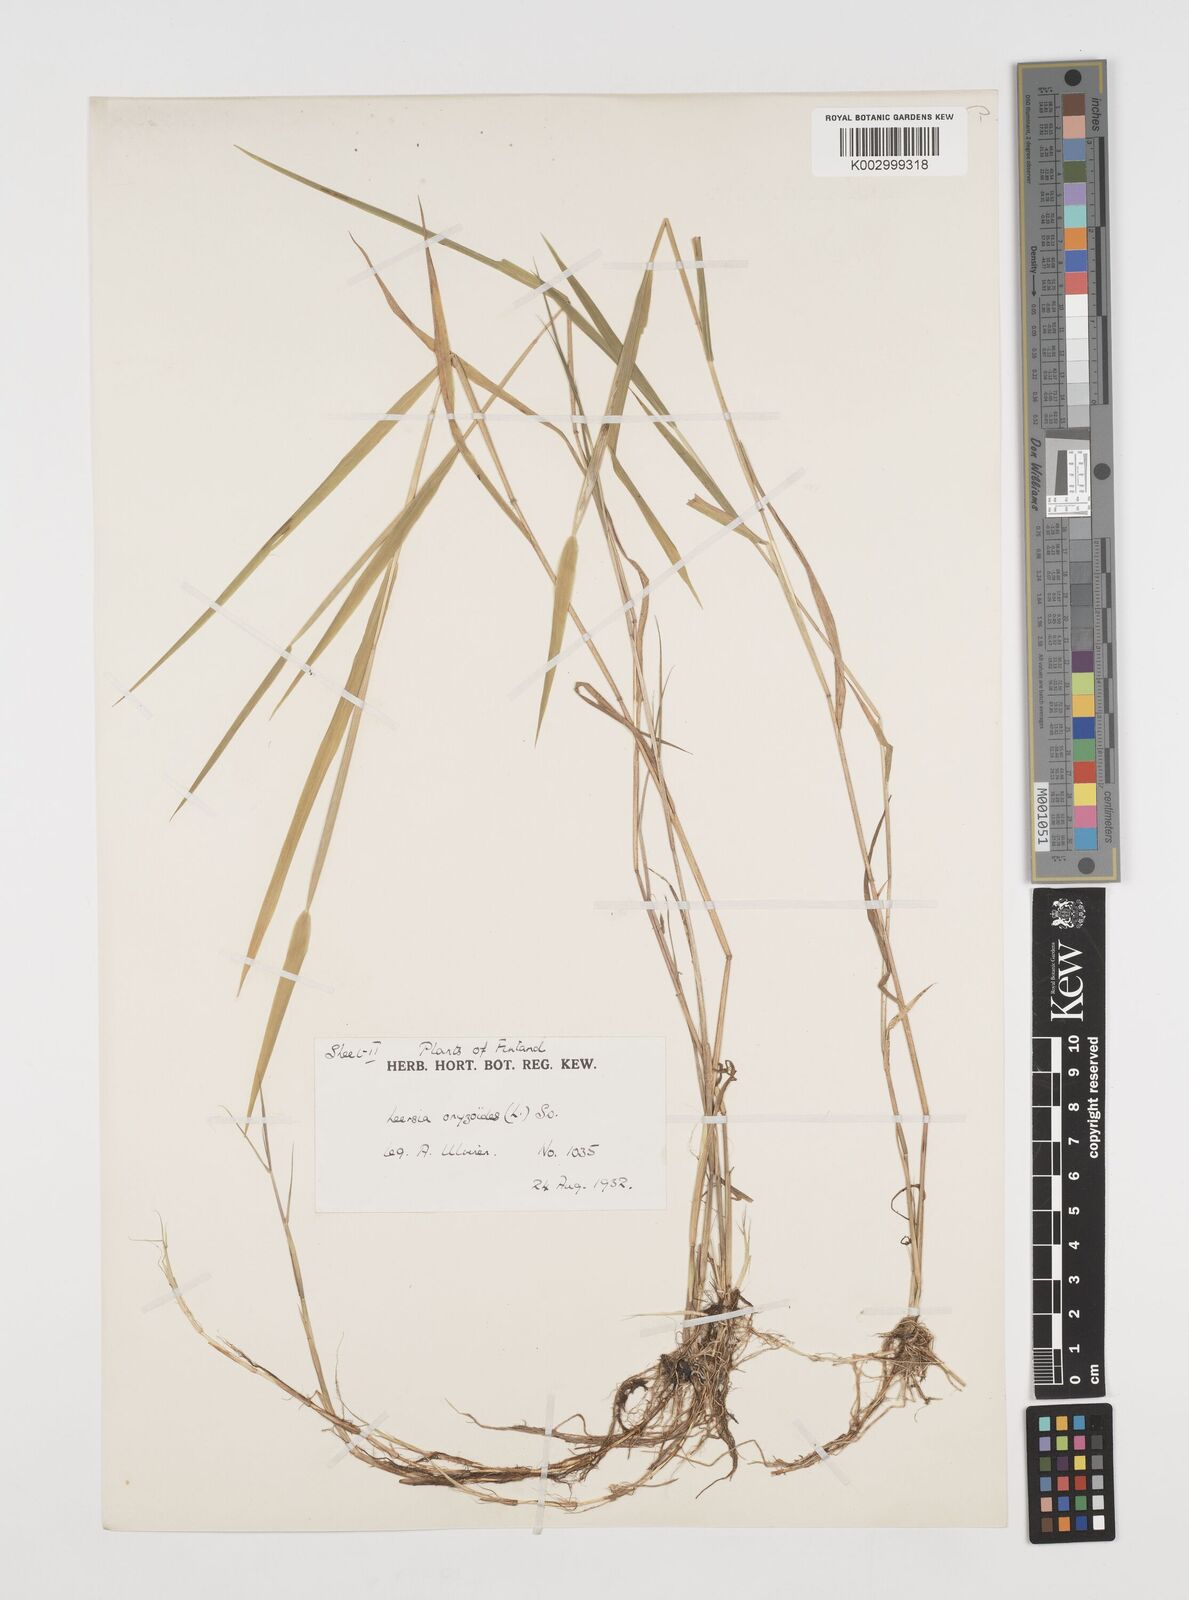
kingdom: Plantae
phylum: Tracheophyta
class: Liliopsida
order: Poales
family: Poaceae
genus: Leersia
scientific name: Leersia oryzoides
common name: Cut-grass
